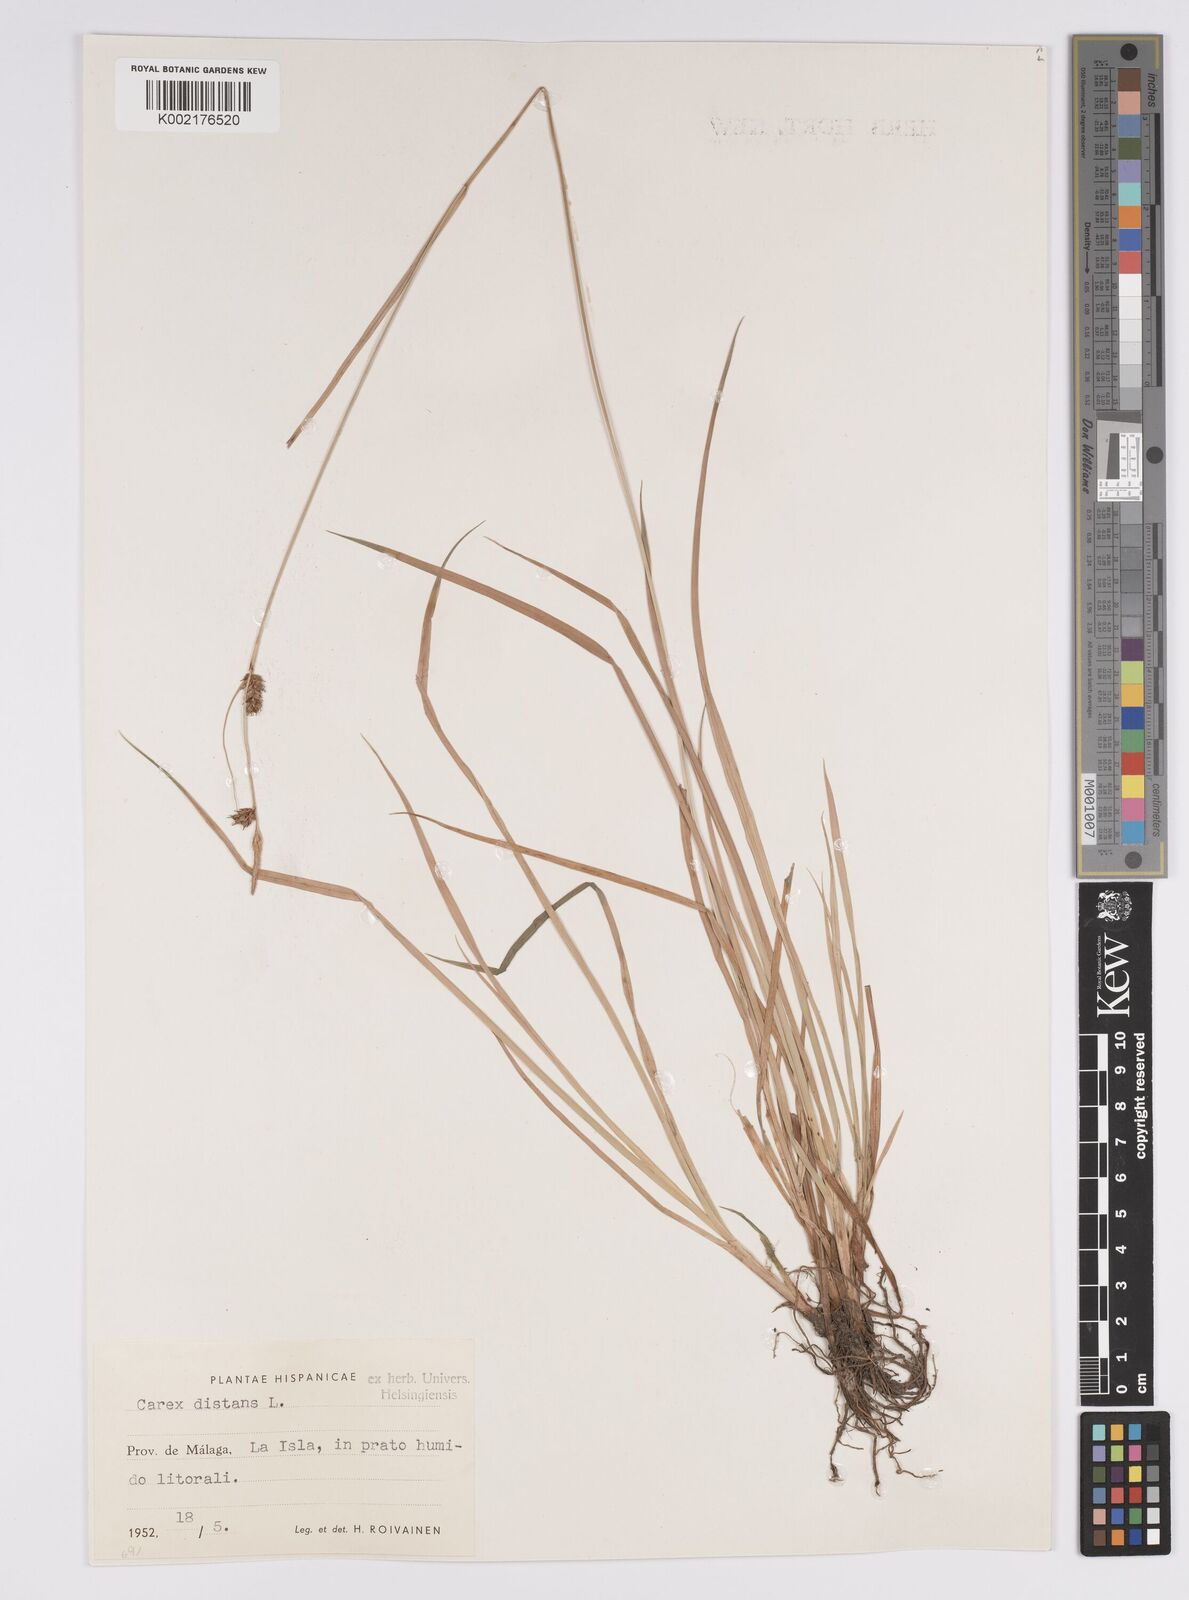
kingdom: Plantae
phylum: Tracheophyta
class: Liliopsida
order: Poales
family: Cyperaceae
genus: Carex
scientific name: Carex distans
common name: Distant sedge
